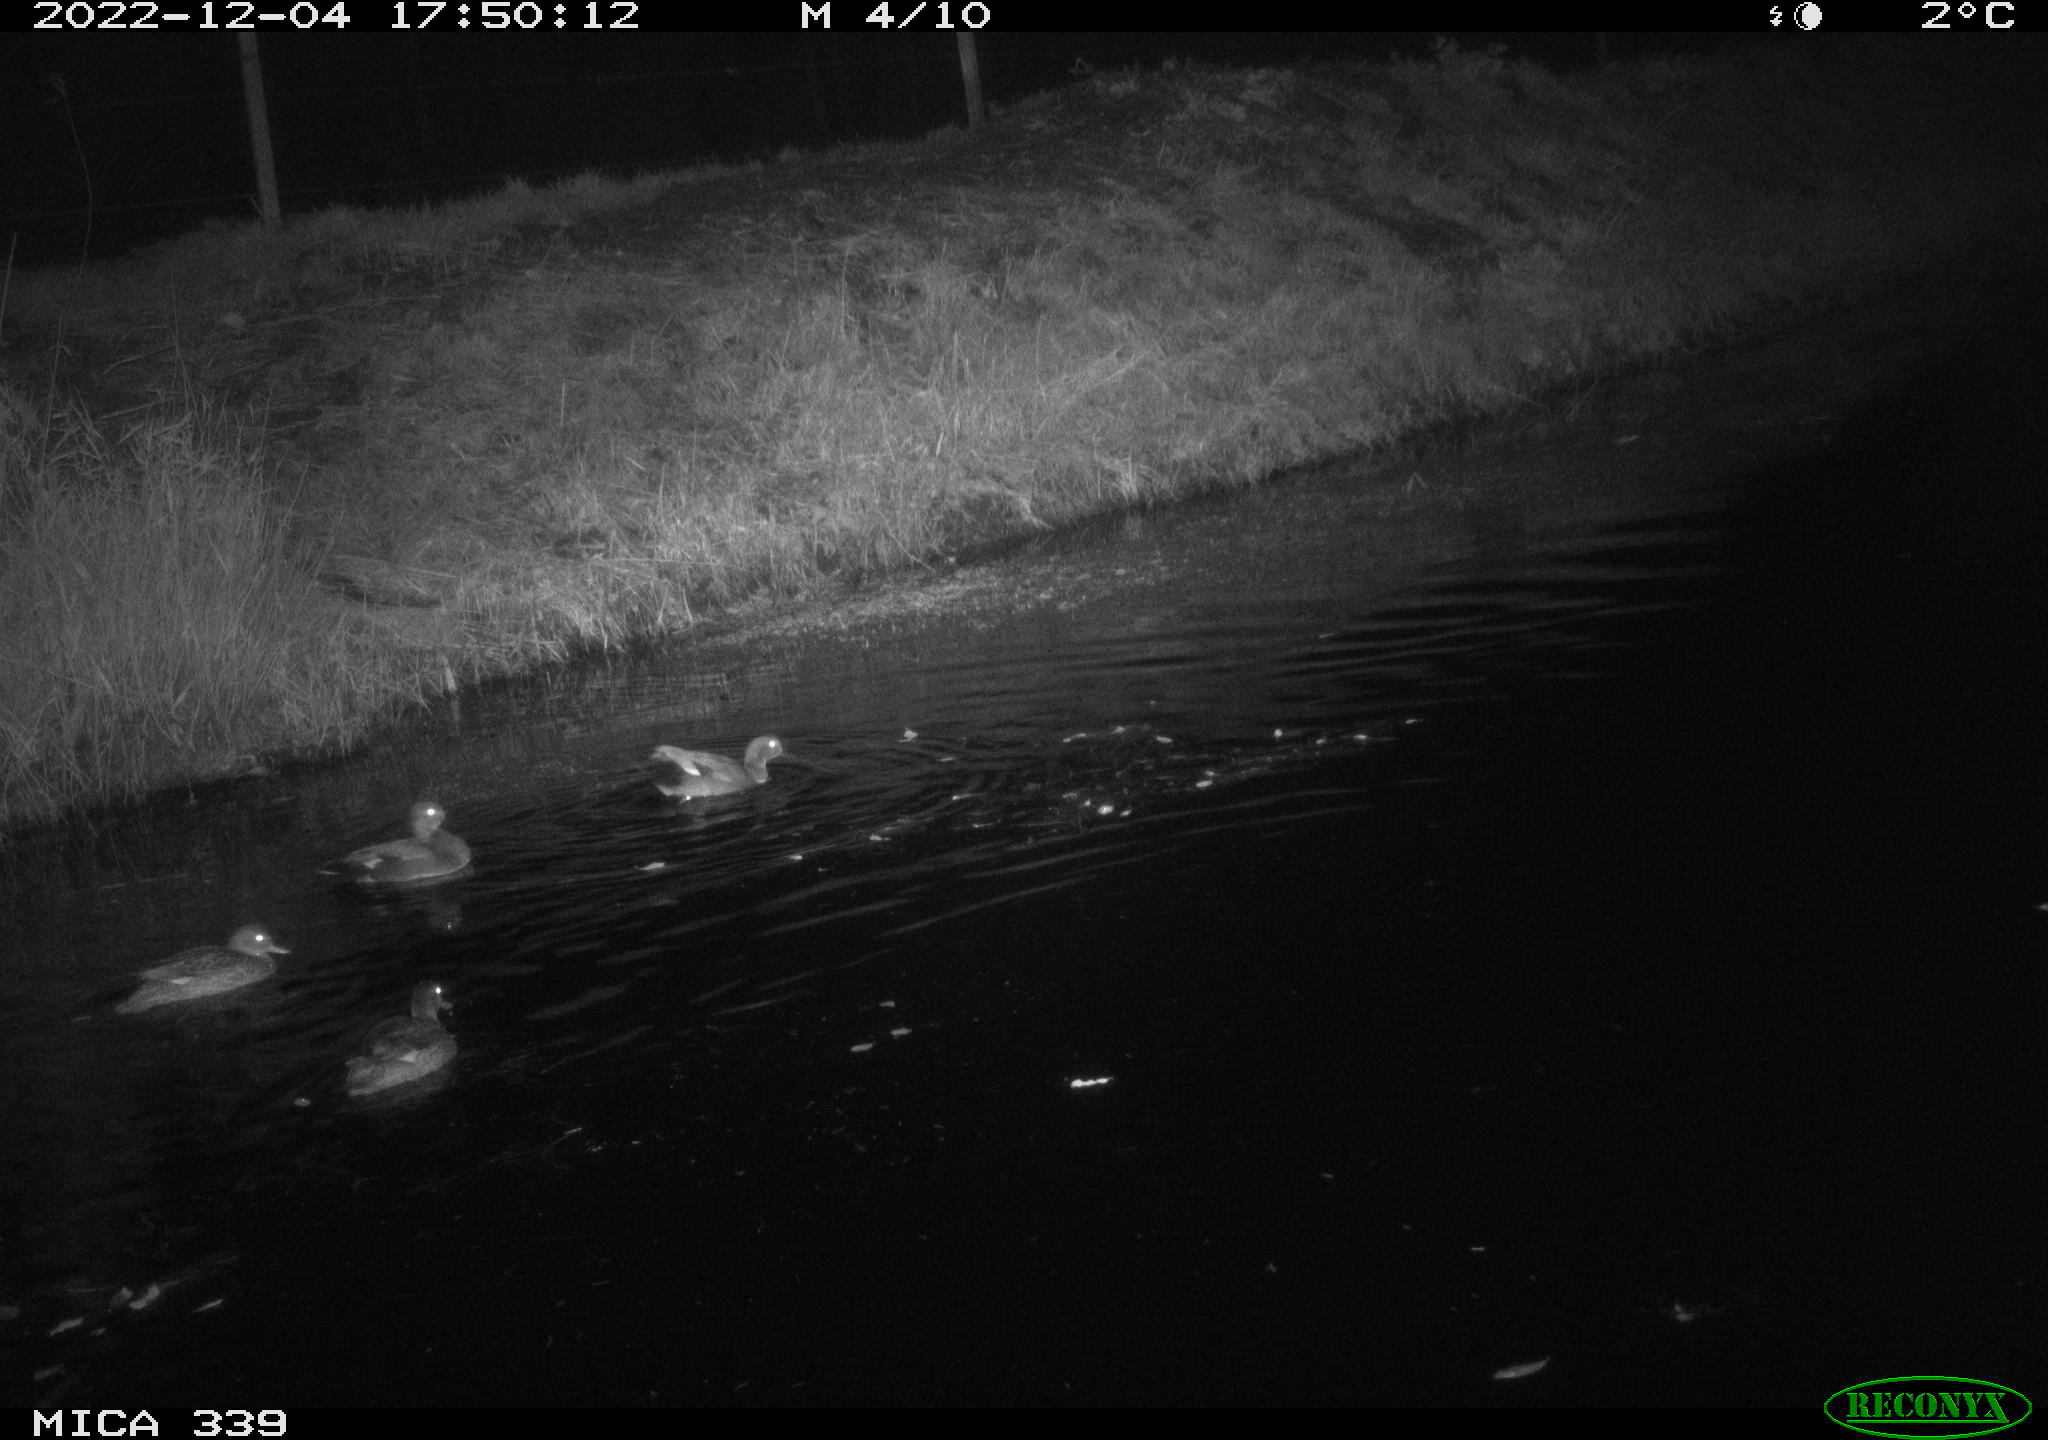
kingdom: Animalia
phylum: Chordata
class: Aves
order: Anseriformes
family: Anatidae
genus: Anas
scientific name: Anas
